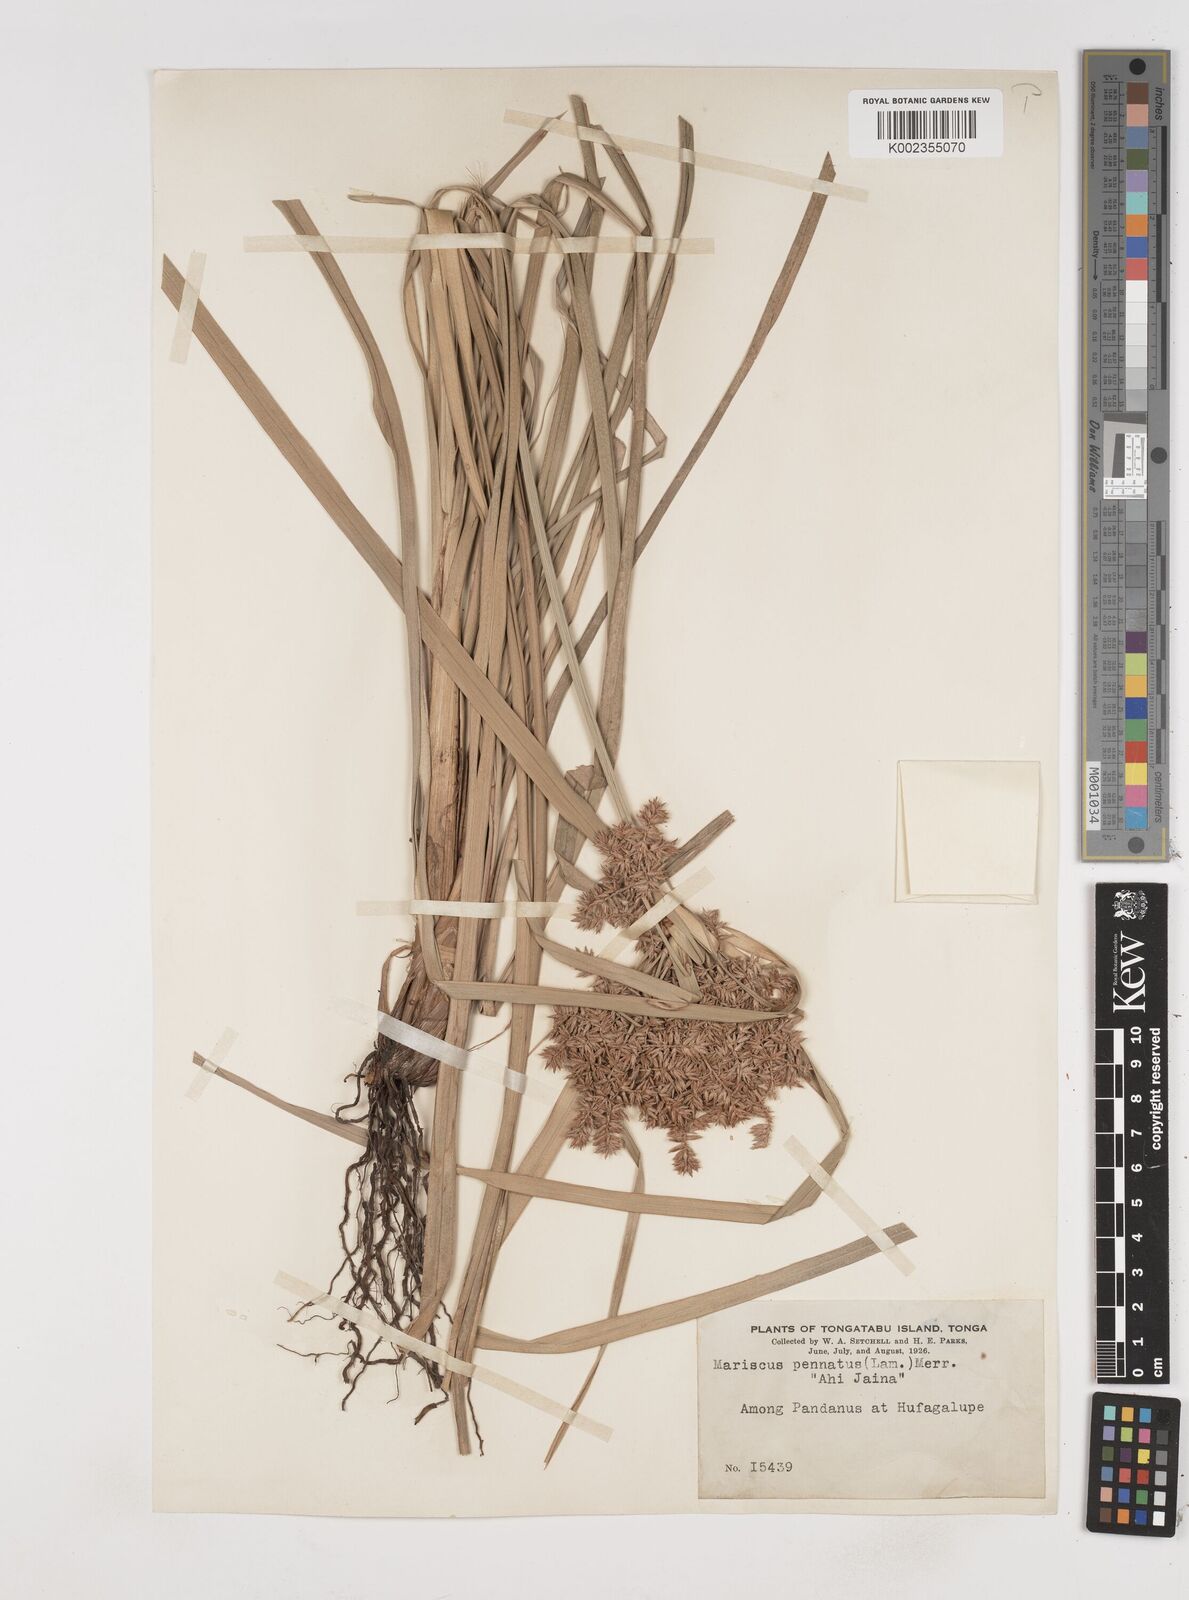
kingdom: Plantae
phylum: Tracheophyta
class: Liliopsida
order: Poales
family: Cyperaceae
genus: Cyperus
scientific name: Cyperus javanicus
